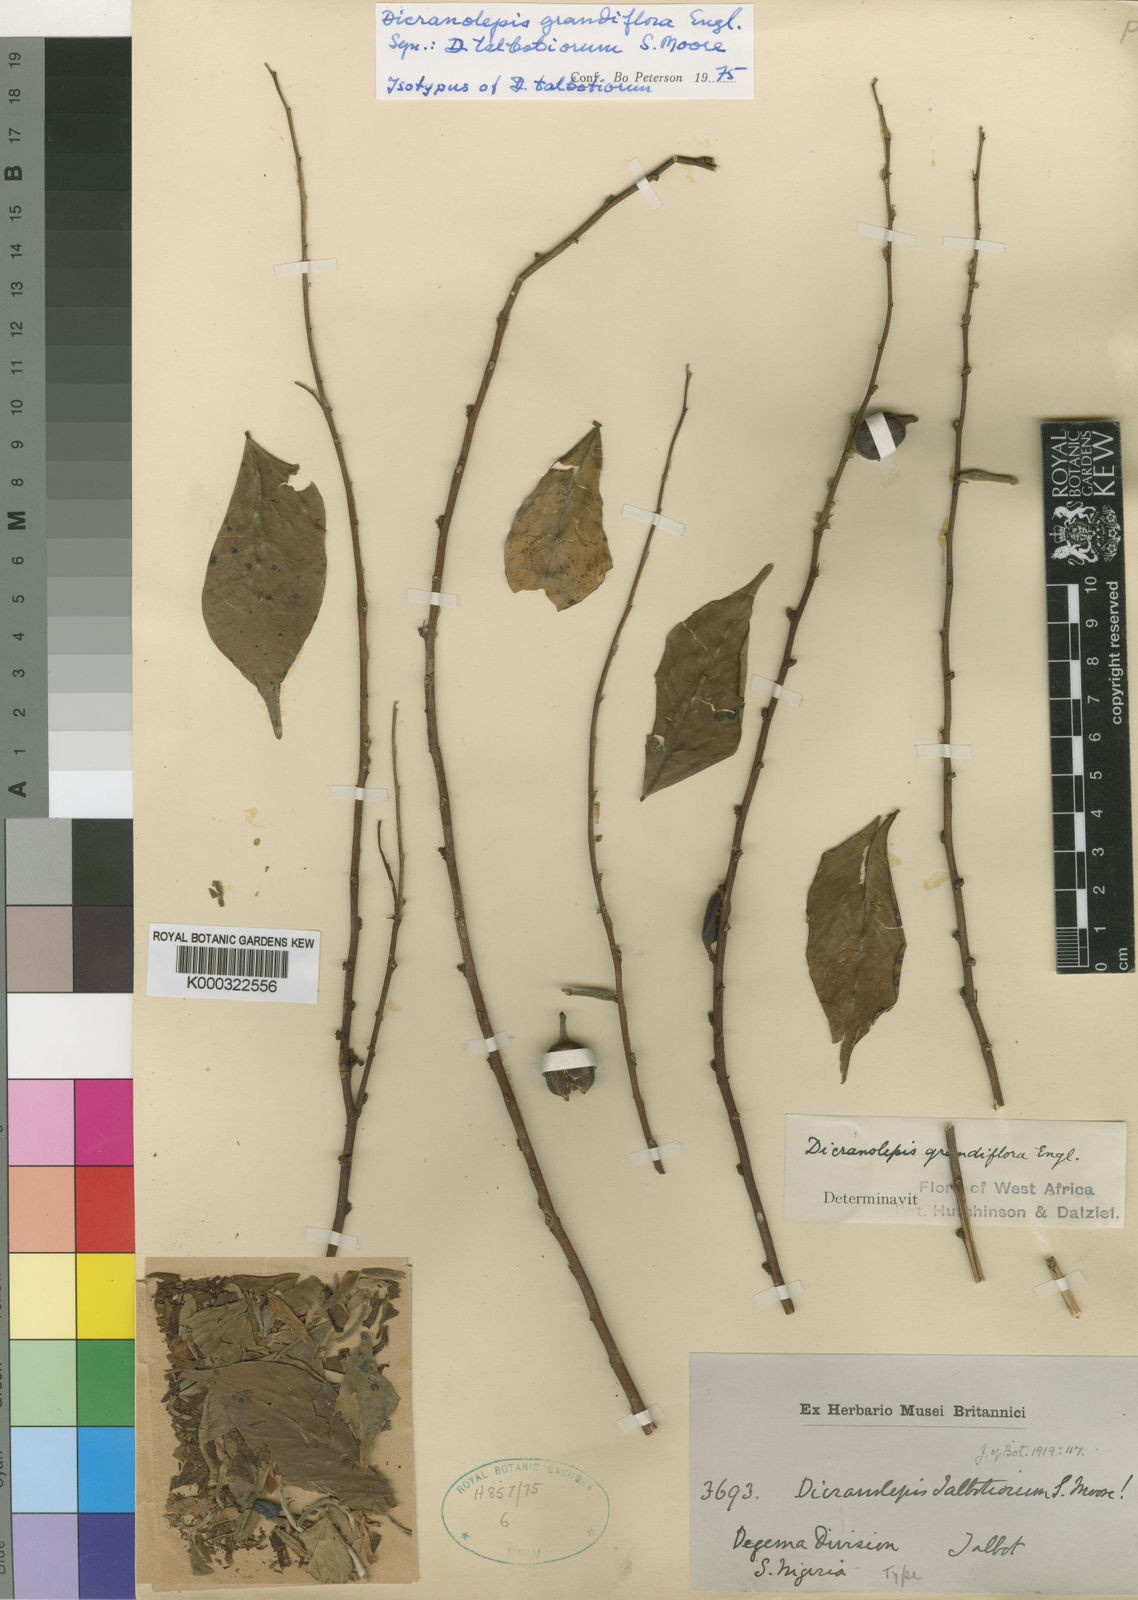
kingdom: Plantae
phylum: Tracheophyta
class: Magnoliopsida
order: Malvales
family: Thymelaeaceae
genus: Lachnaea
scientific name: Lachnaea grandiflora
